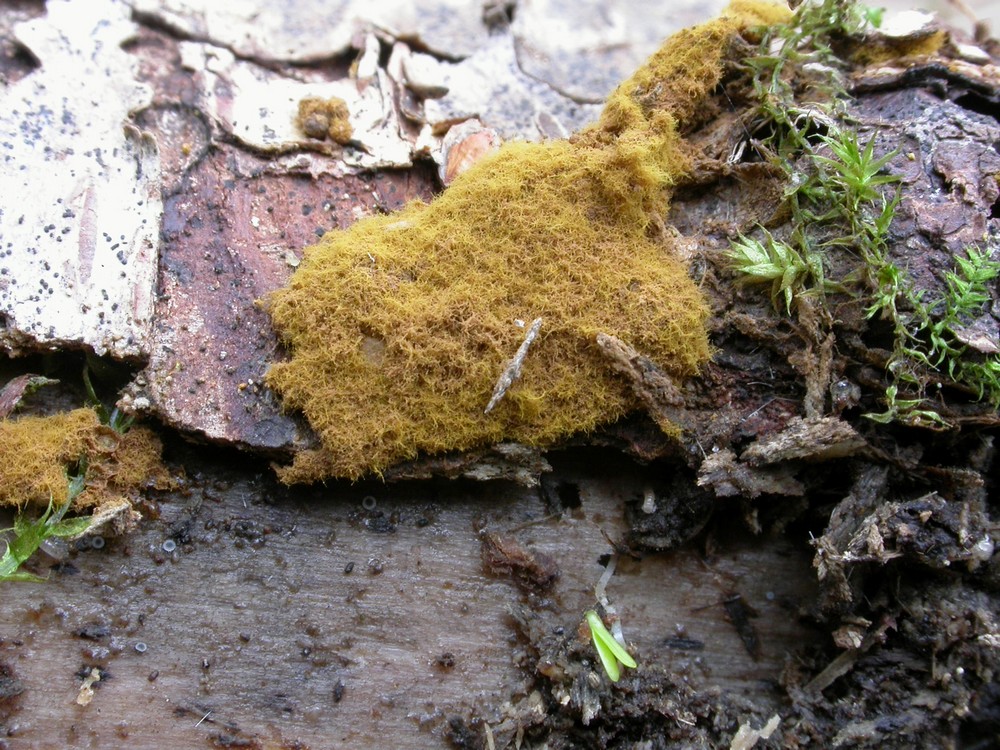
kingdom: Protozoa
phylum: Mycetozoa
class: Myxomycetes
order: Trichiales
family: Trichiaceae
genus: Oligonema
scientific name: Oligonema persimile
